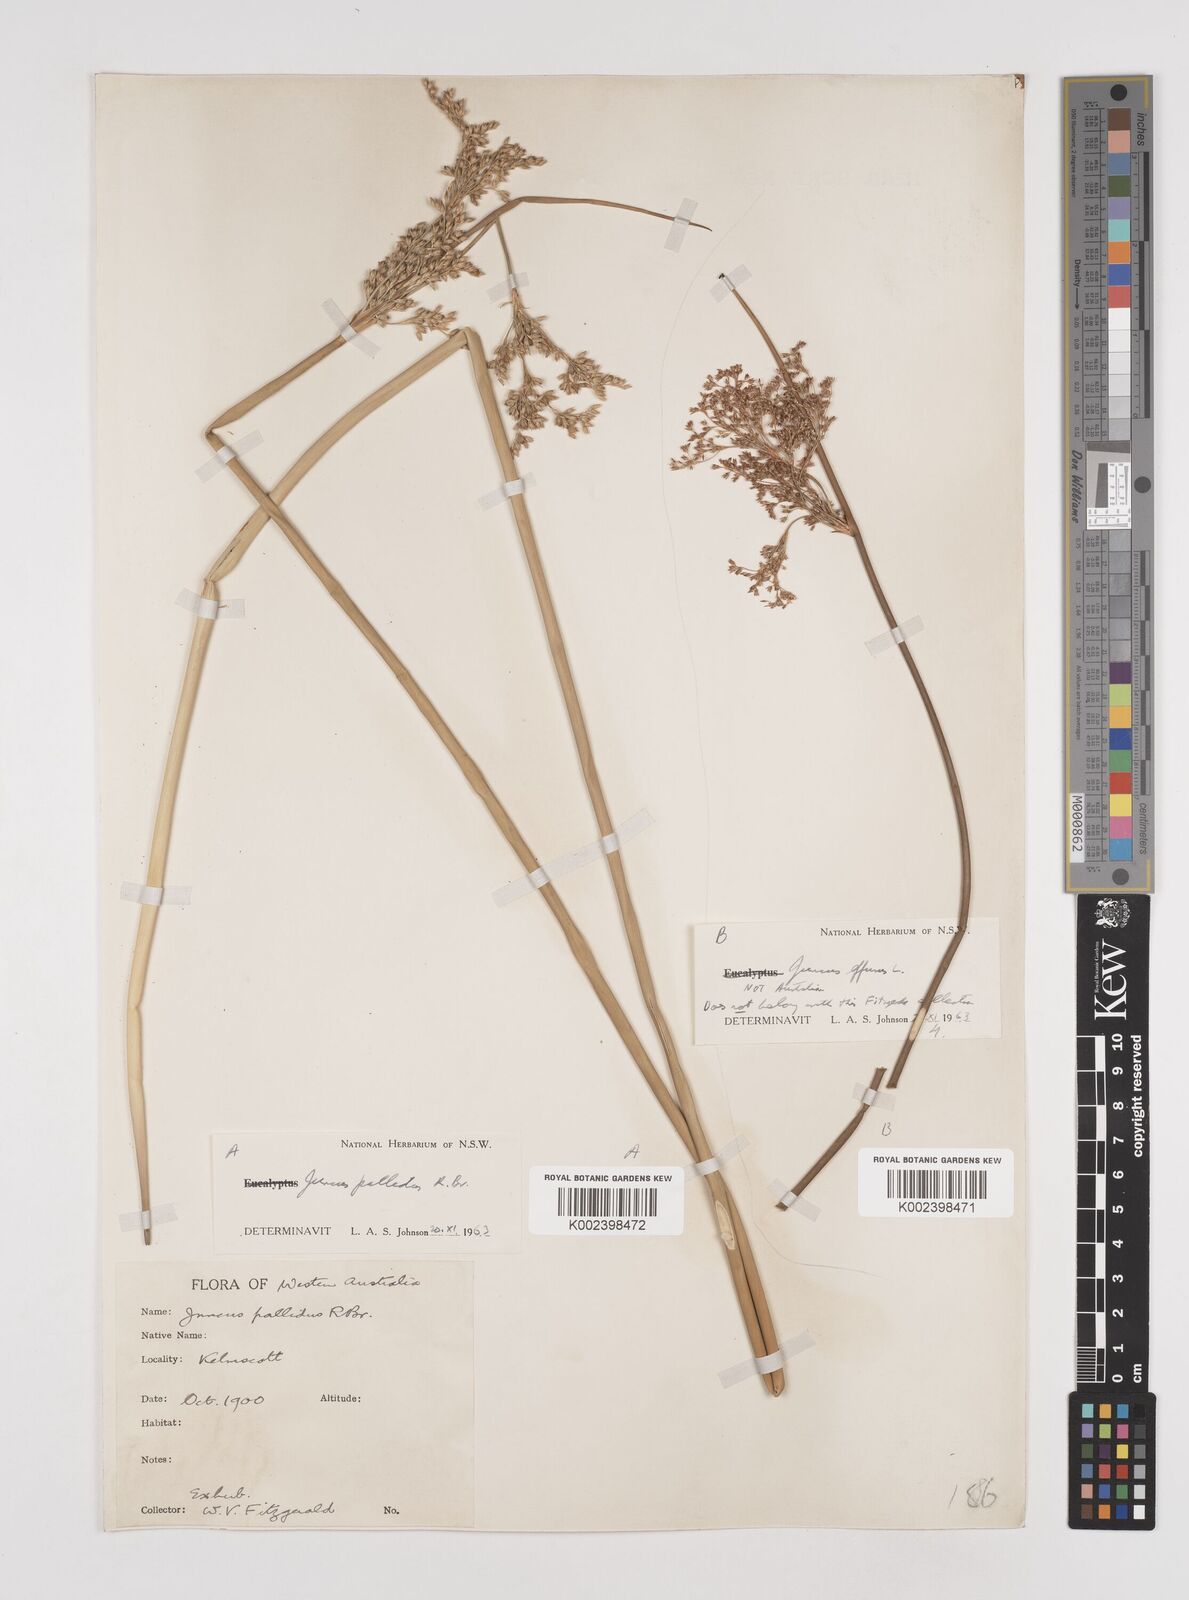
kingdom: Plantae
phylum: Tracheophyta
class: Liliopsida
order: Poales
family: Juncaceae
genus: Juncus
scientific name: Juncus pallidus
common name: Great soft-rush
